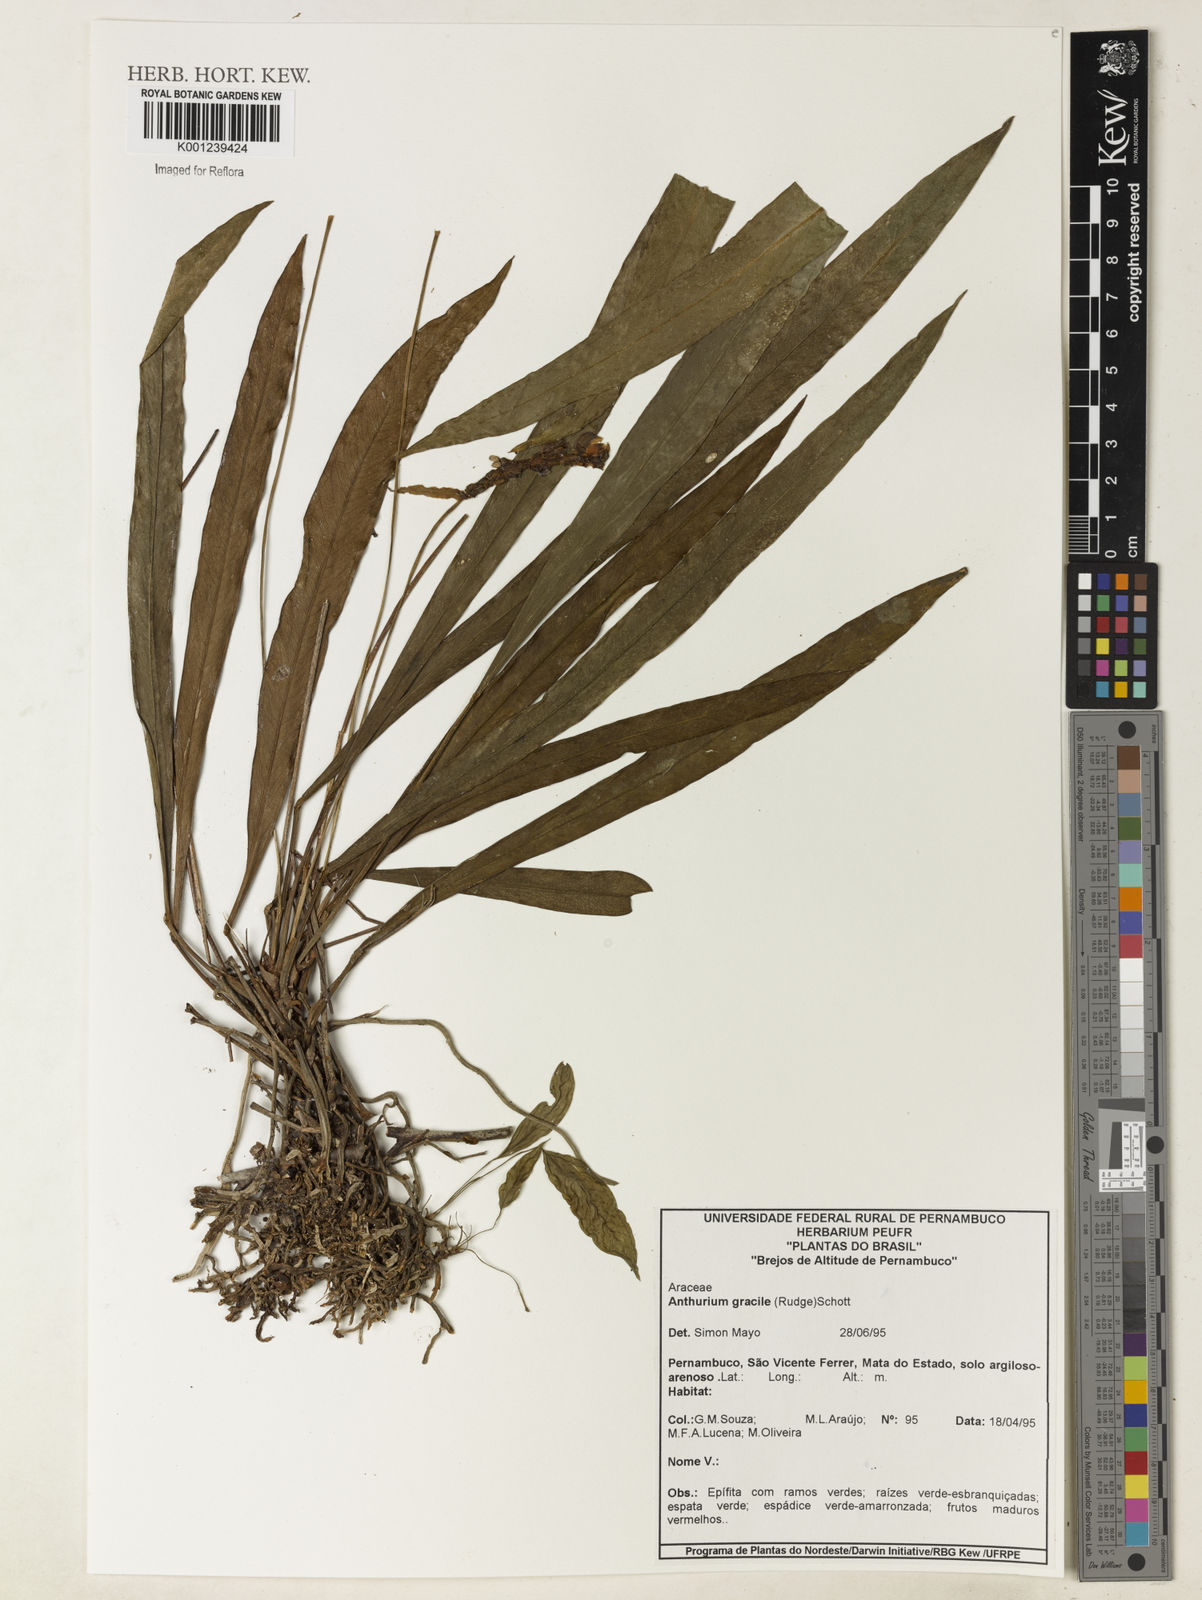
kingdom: Plantae
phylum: Tracheophyta
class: Liliopsida
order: Alismatales
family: Araceae
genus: Anthurium
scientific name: Anthurium gracile
